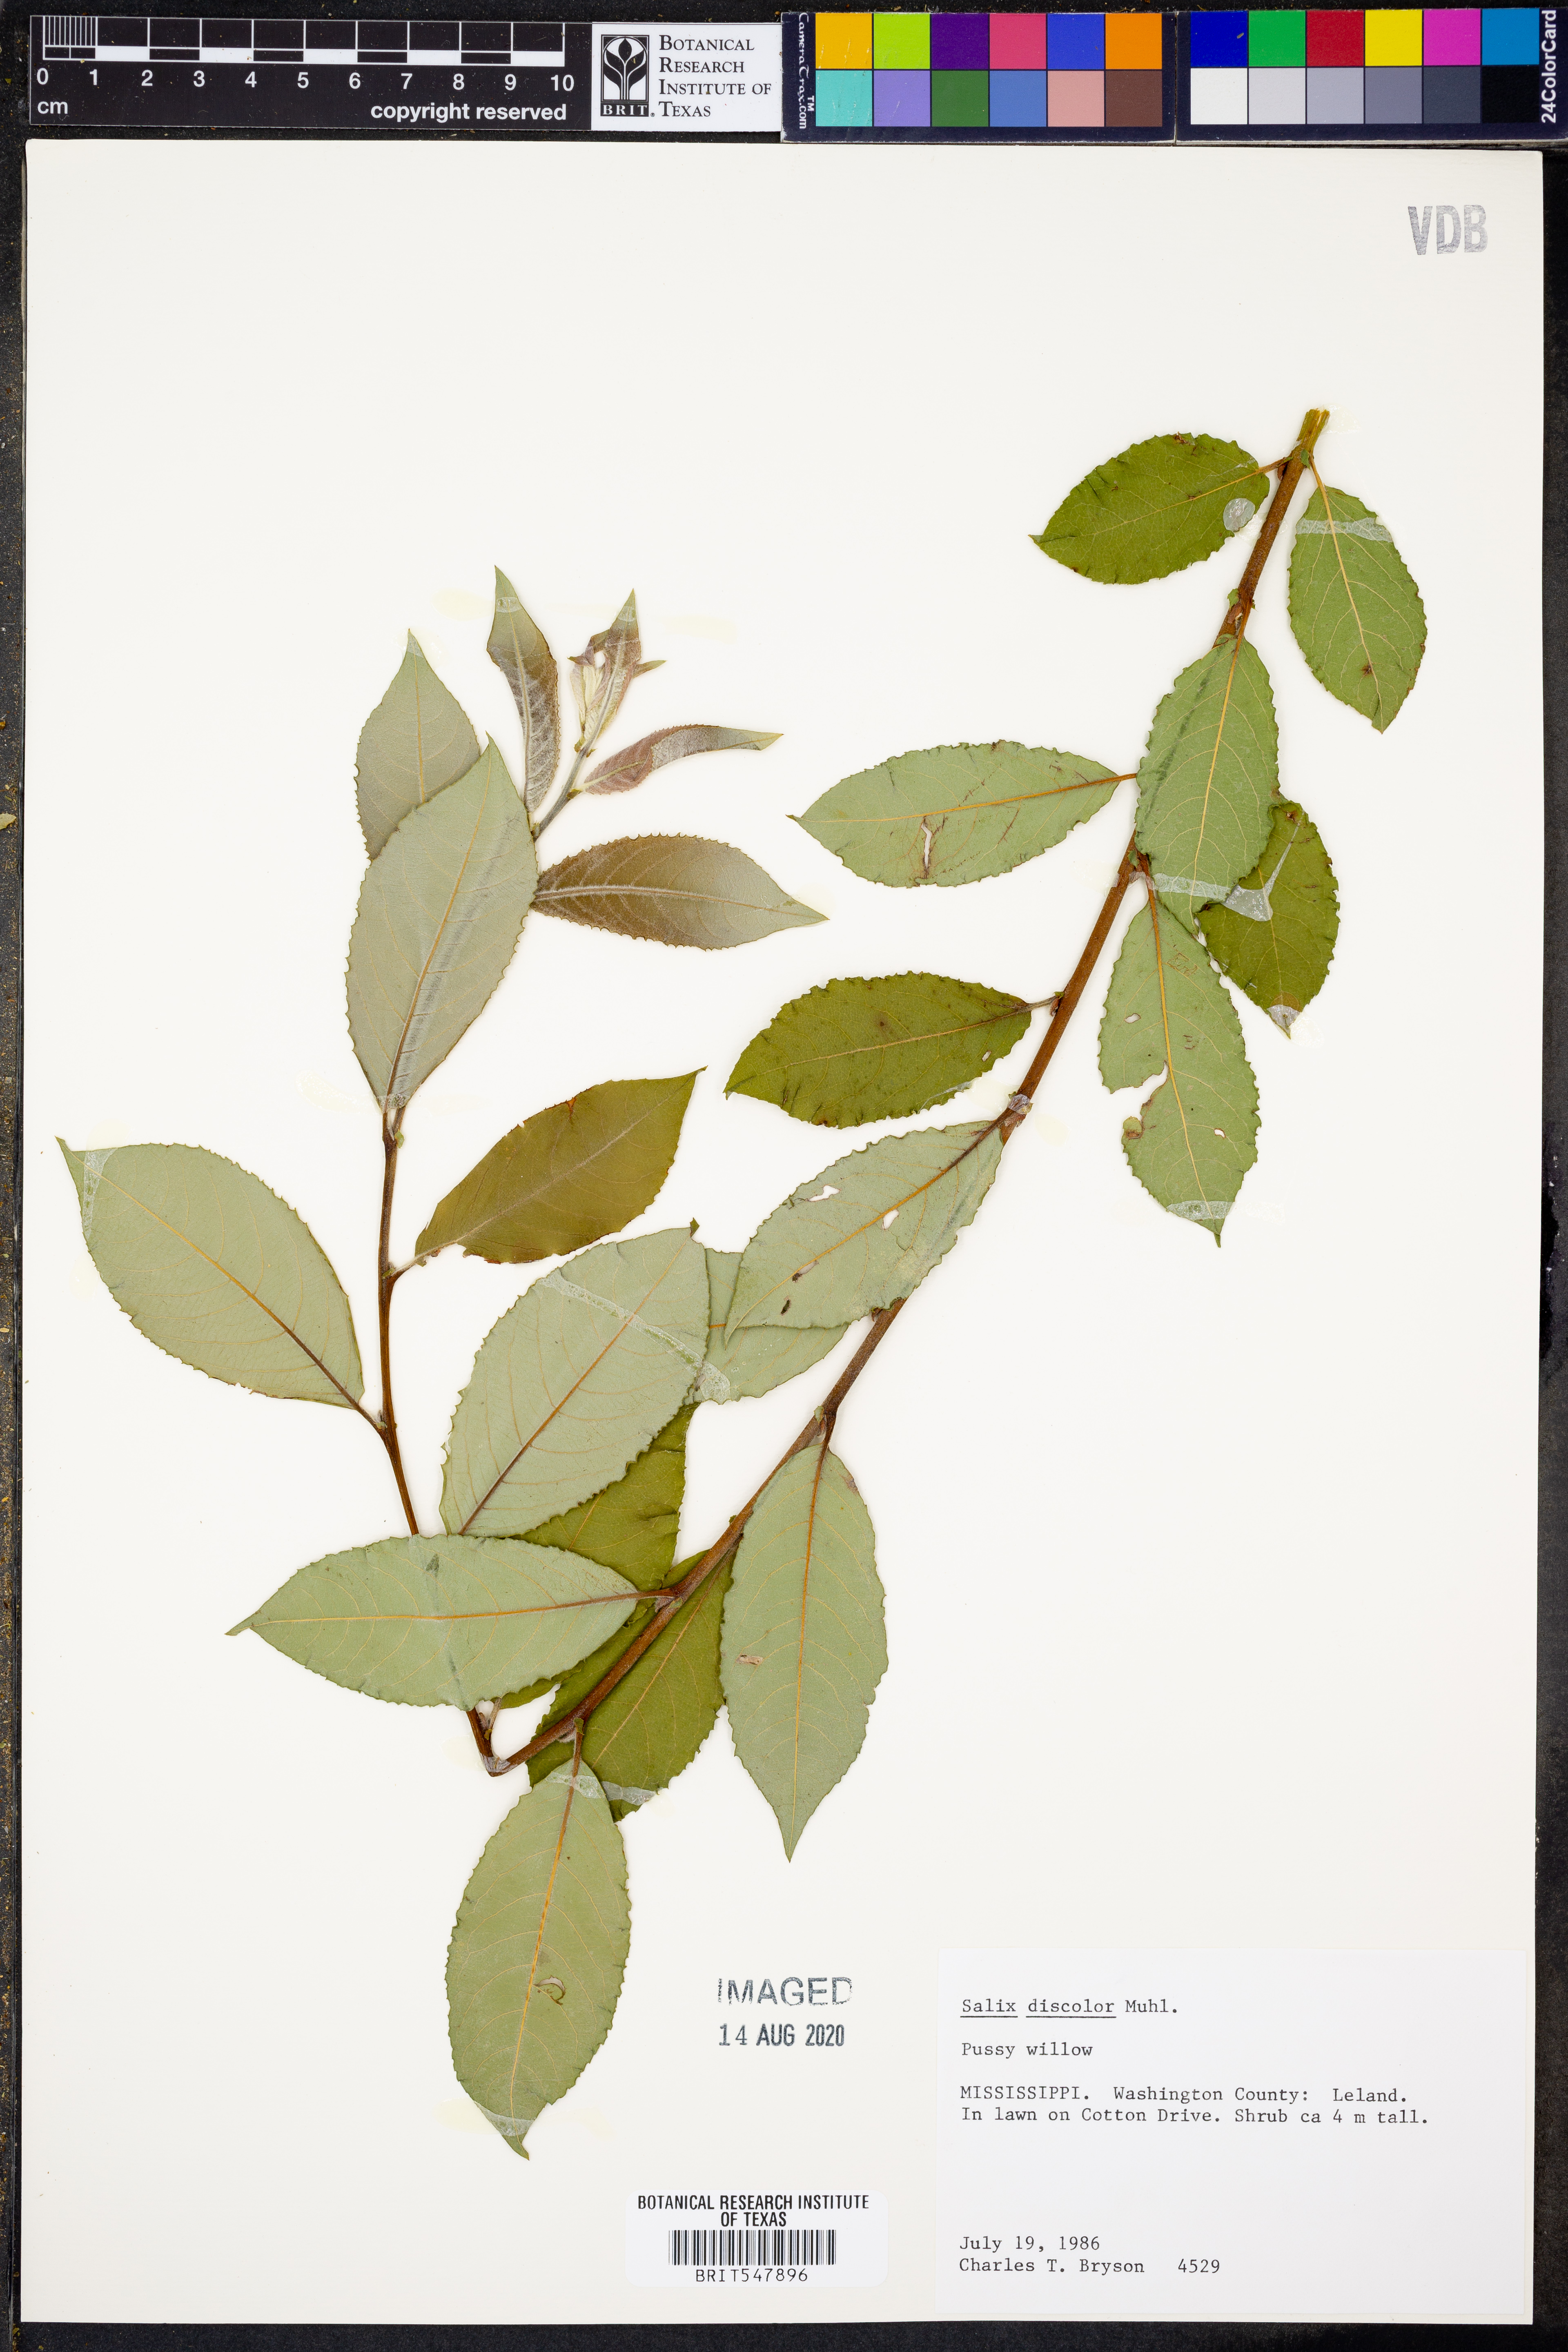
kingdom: Plantae
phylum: Tracheophyta
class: Magnoliopsida
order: Malpighiales
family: Salicaceae
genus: Salix
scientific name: Salix discolor
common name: Glaucous willow
